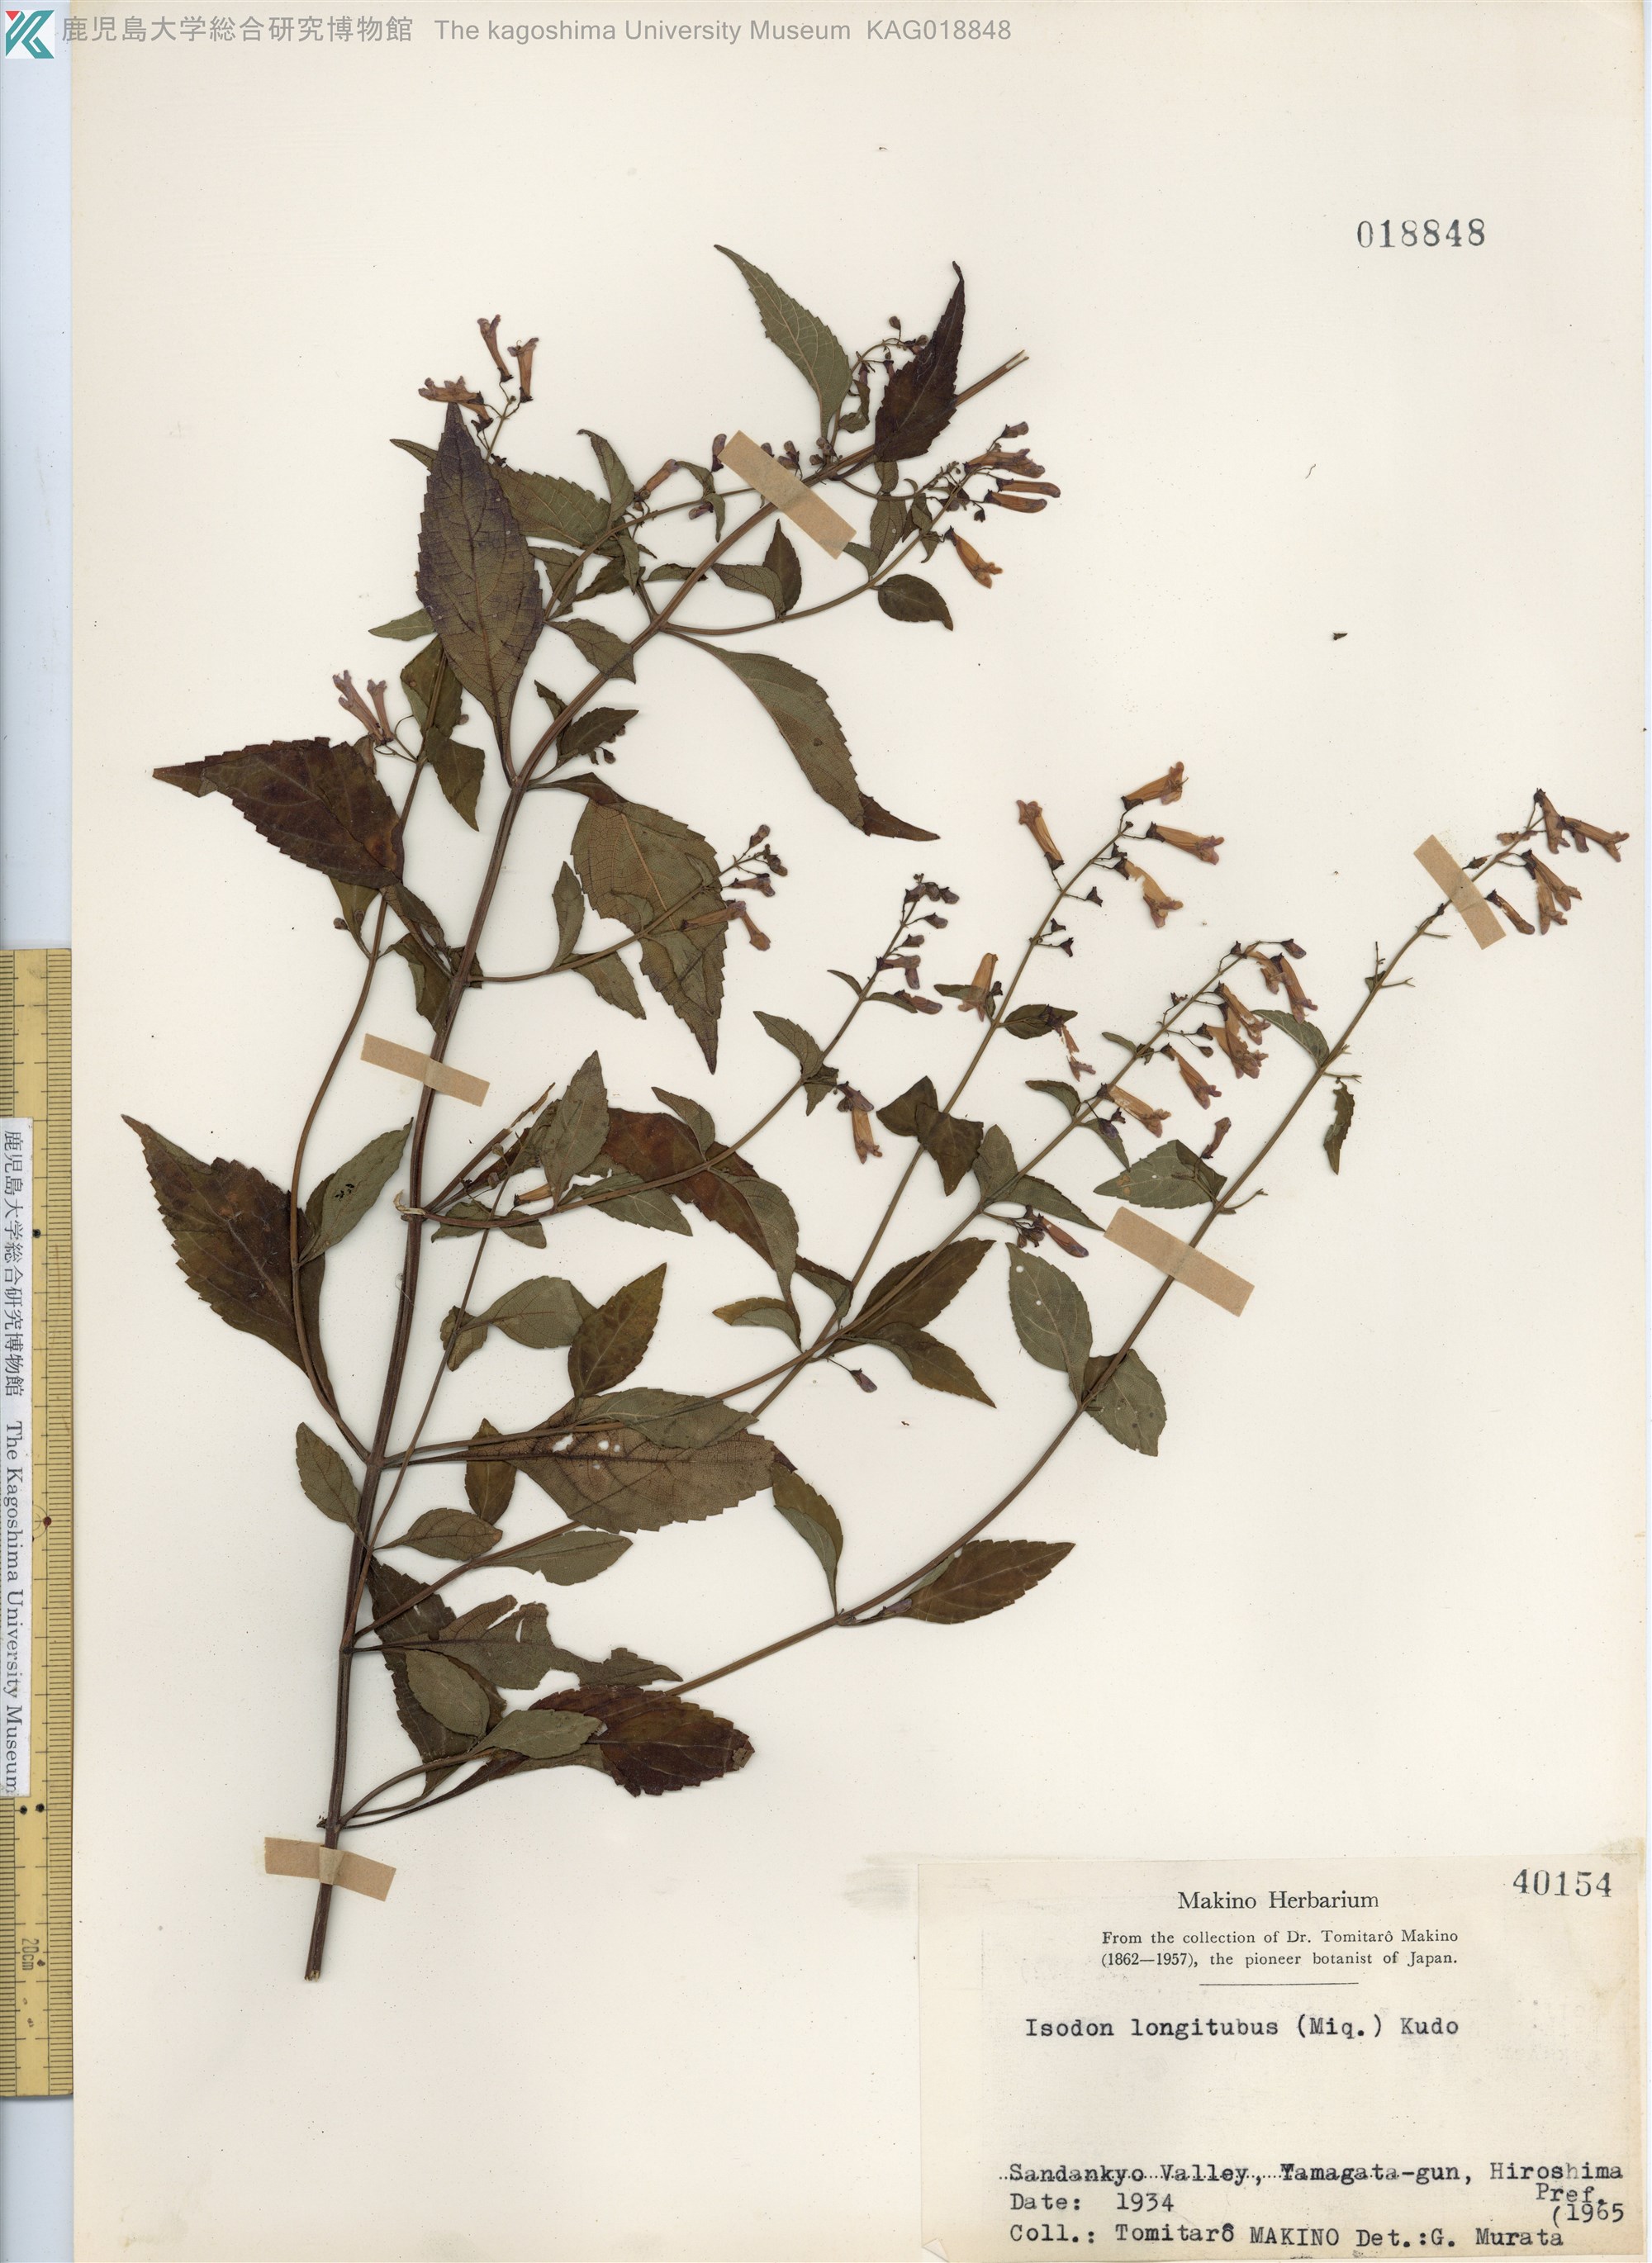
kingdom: Plantae
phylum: Tracheophyta
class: Magnoliopsida
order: Lamiales
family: Lamiaceae
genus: Isodon
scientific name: Isodon longitubus
